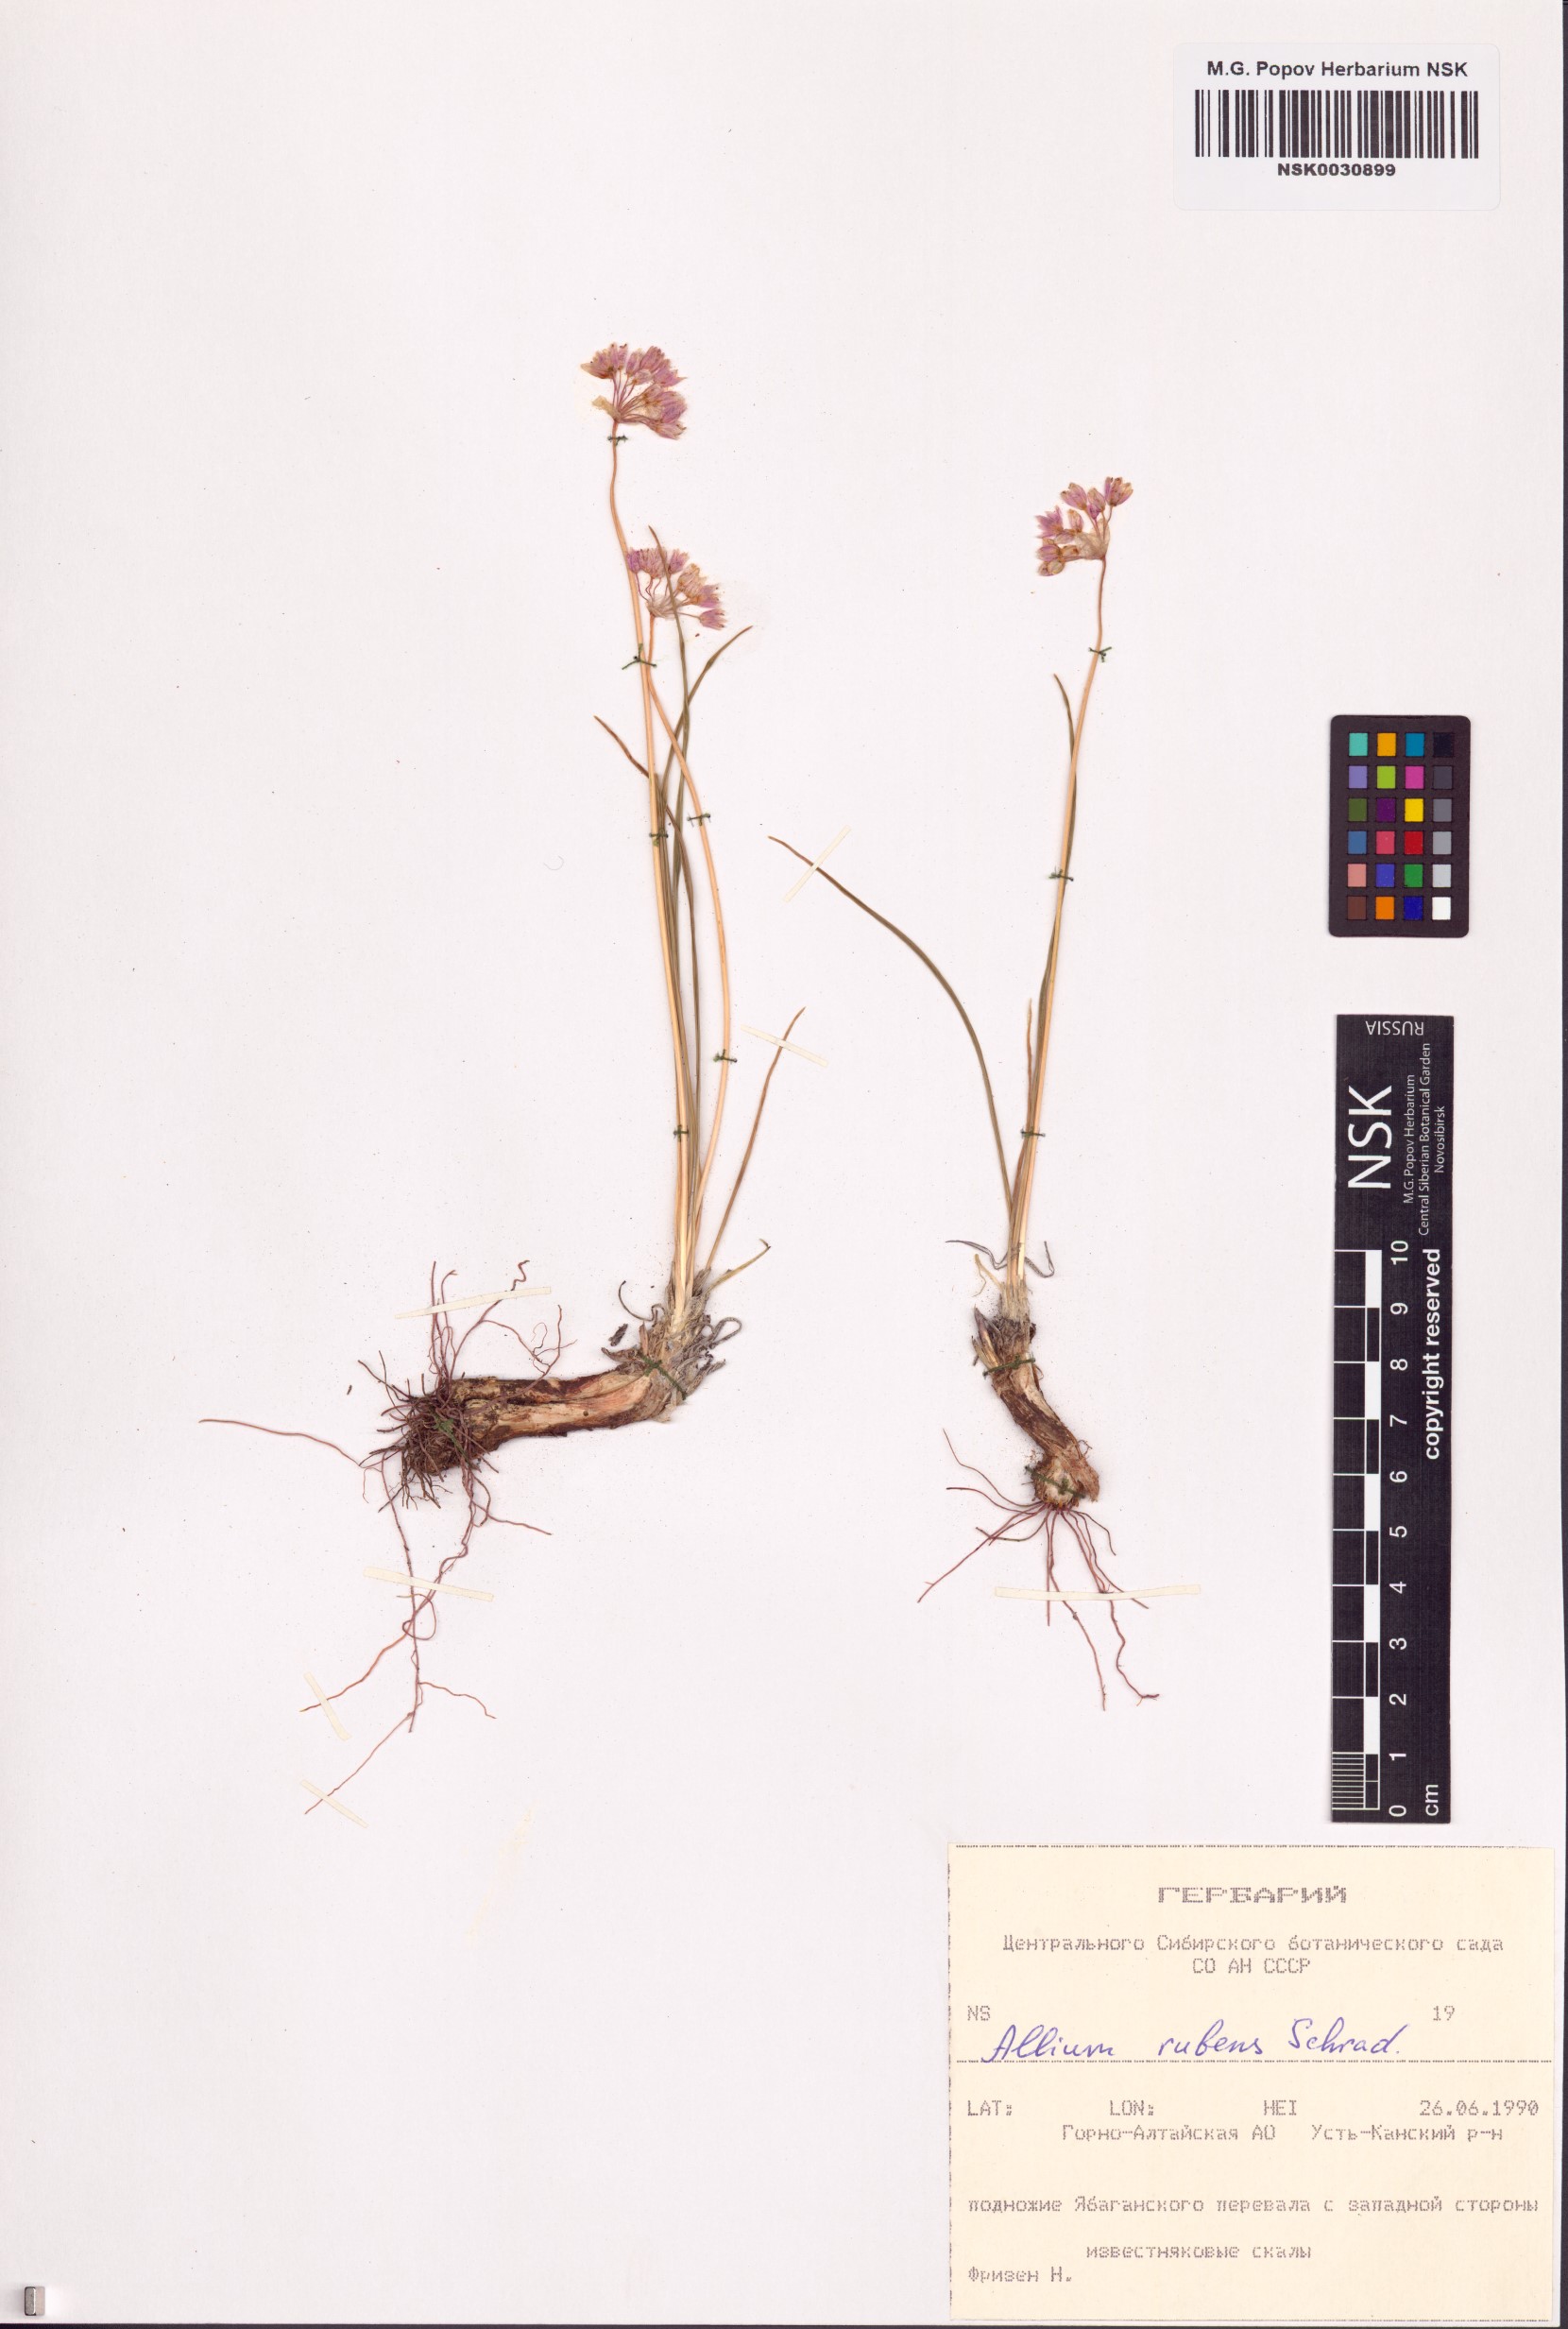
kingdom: Plantae
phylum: Tracheophyta
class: Liliopsida
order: Asparagales
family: Amaryllidaceae
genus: Allium
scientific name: Allium rubens
